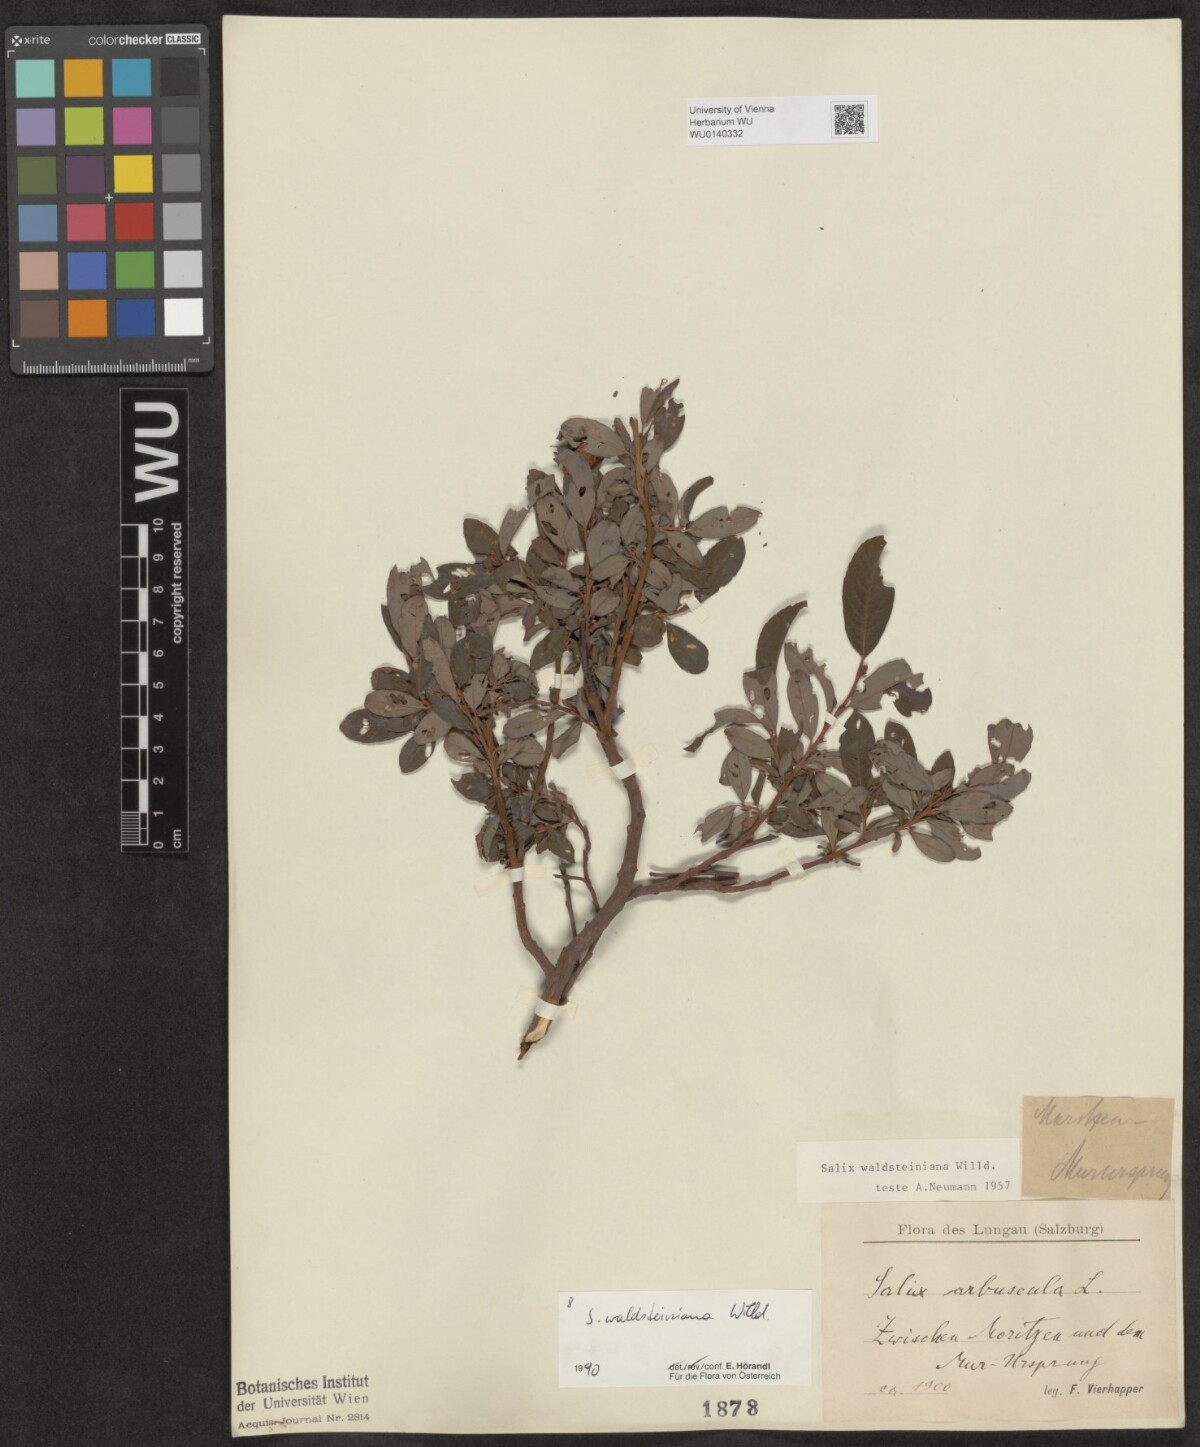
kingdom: Plantae
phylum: Tracheophyta
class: Magnoliopsida
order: Malpighiales
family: Salicaceae
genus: Salix
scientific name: Salix waldsteiniana
